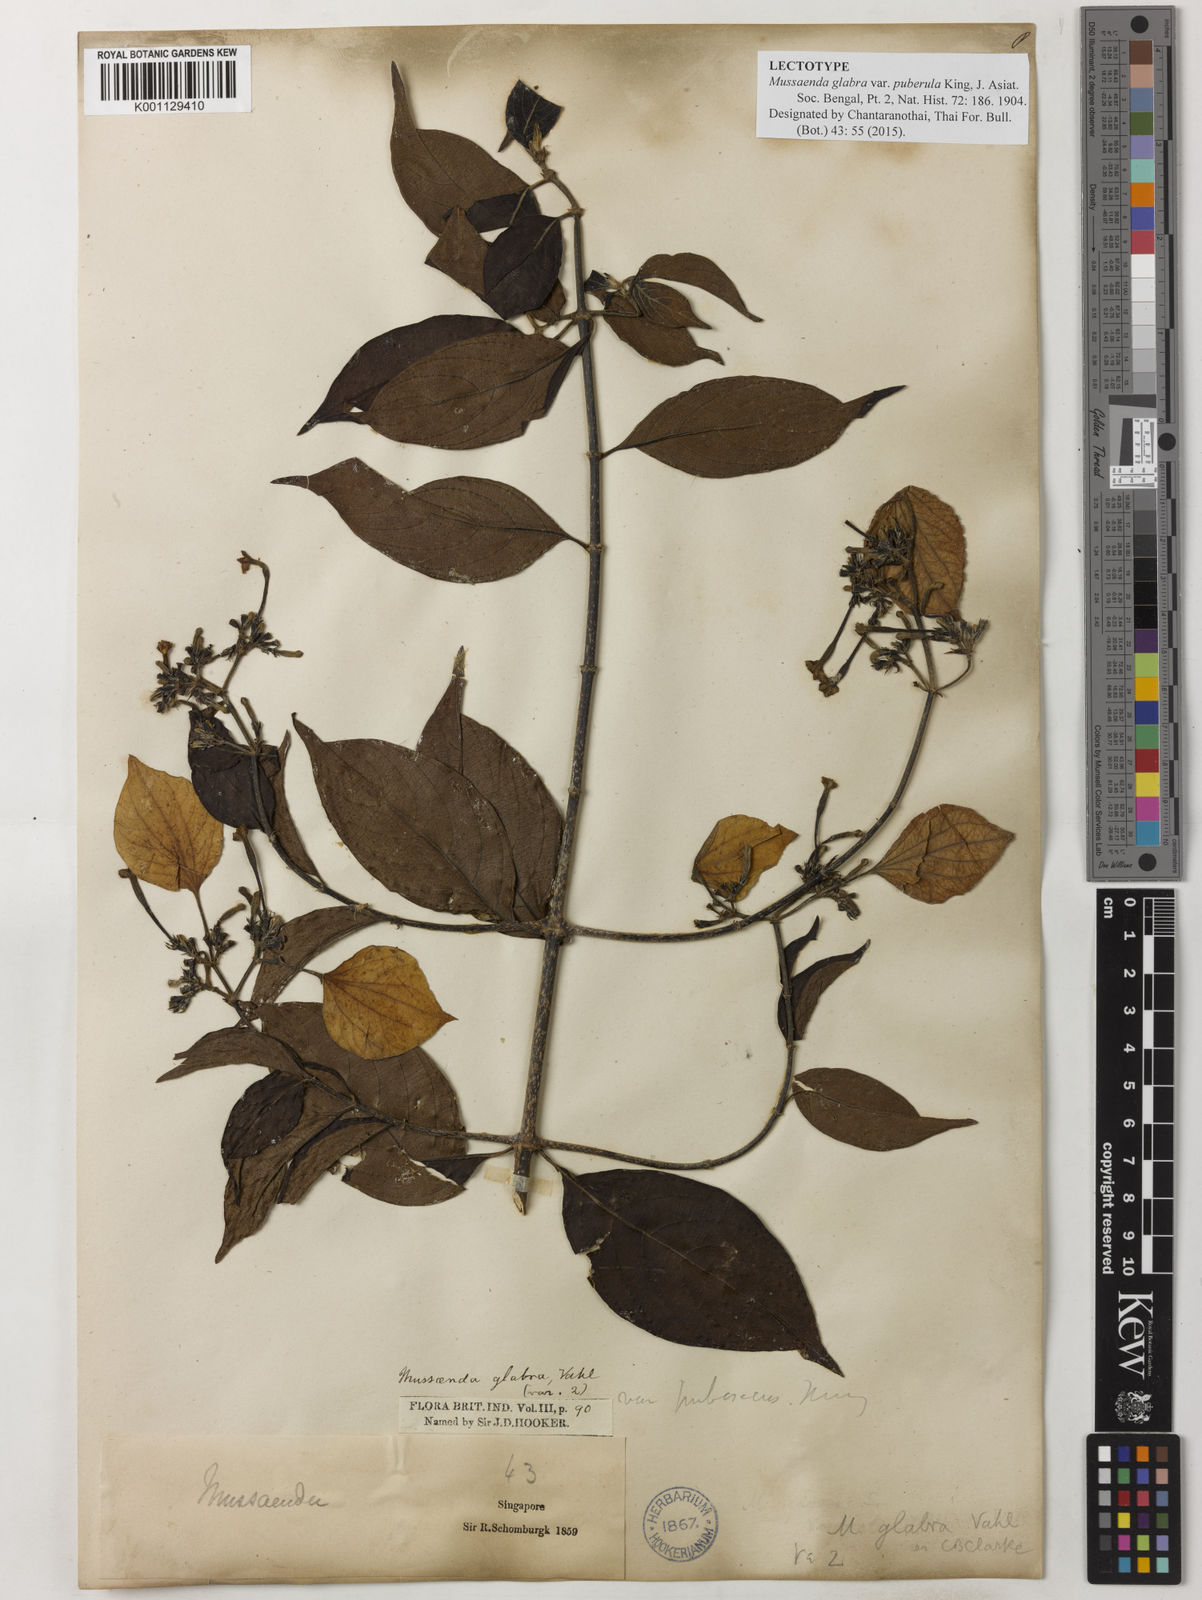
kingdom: Plantae
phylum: Tracheophyta
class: Magnoliopsida
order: Gentianales
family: Rubiaceae
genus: Mussaenda
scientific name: Mussaenda glabra
